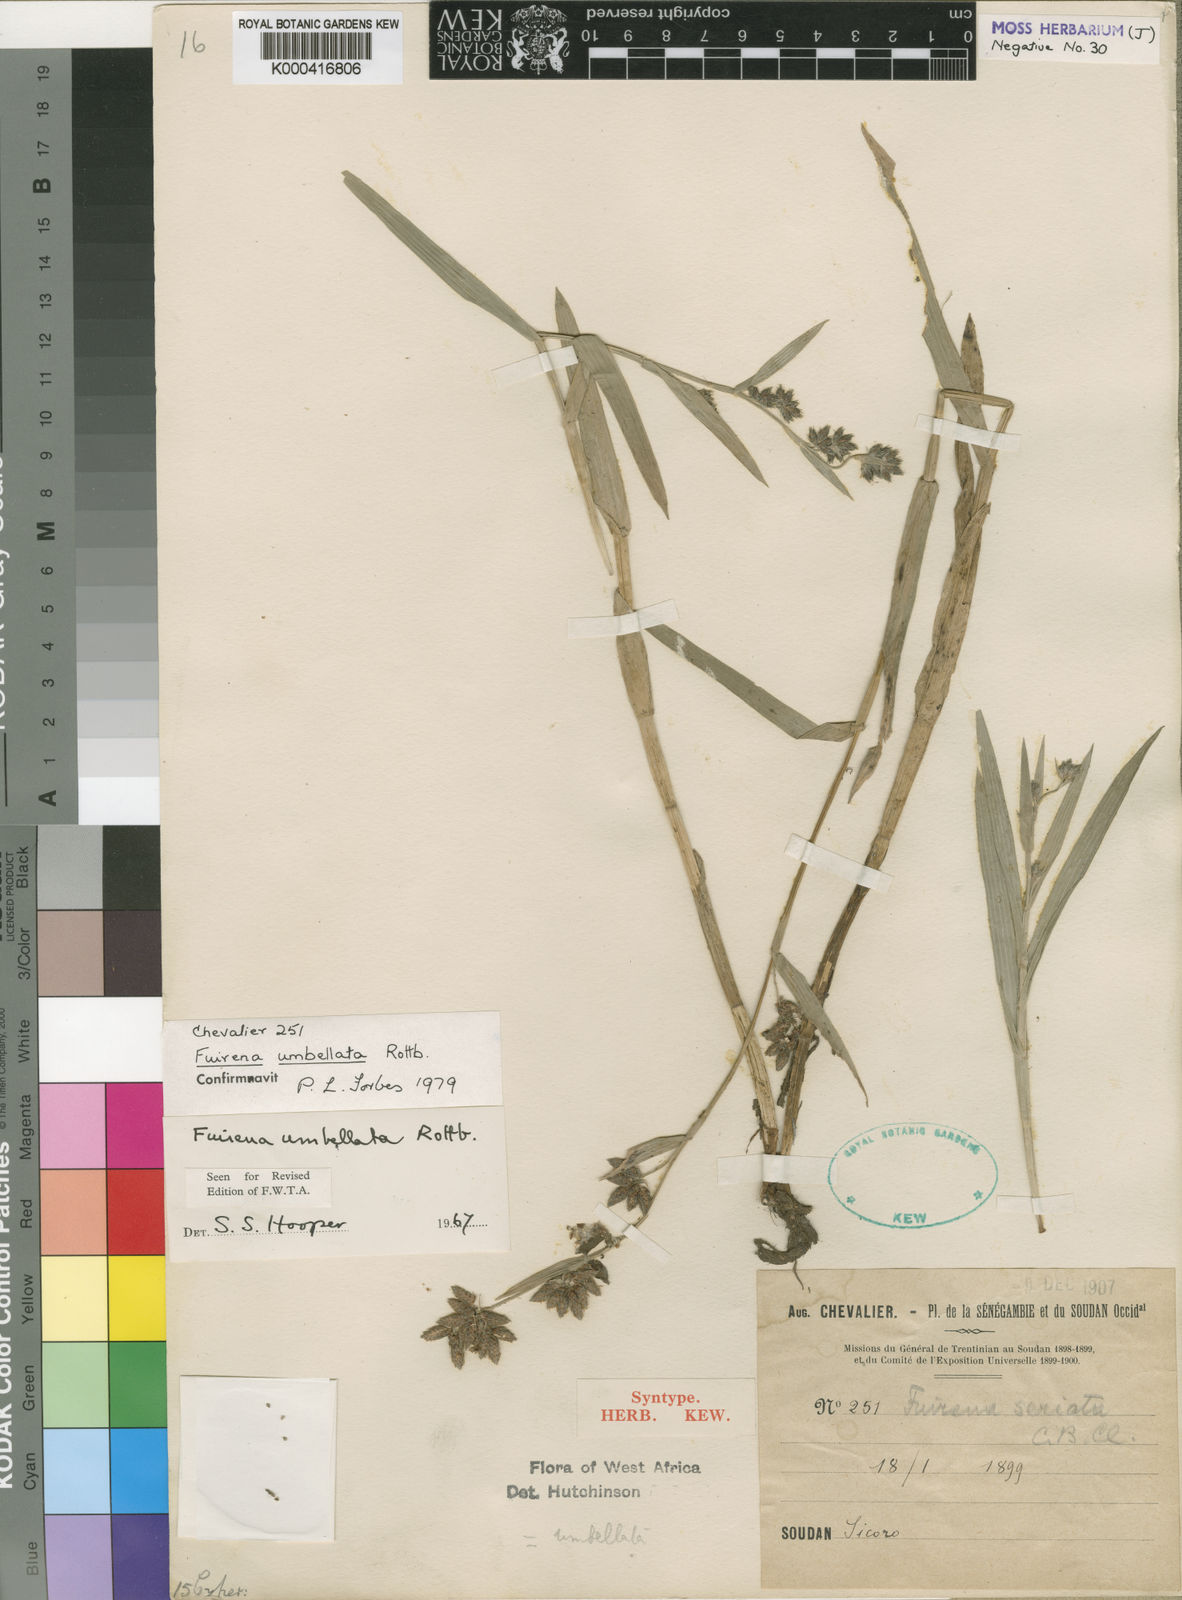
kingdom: Plantae
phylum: Tracheophyta
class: Liliopsida
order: Poales
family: Cyperaceae
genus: Fuirena
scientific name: Fuirena umbellata
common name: Yefen
